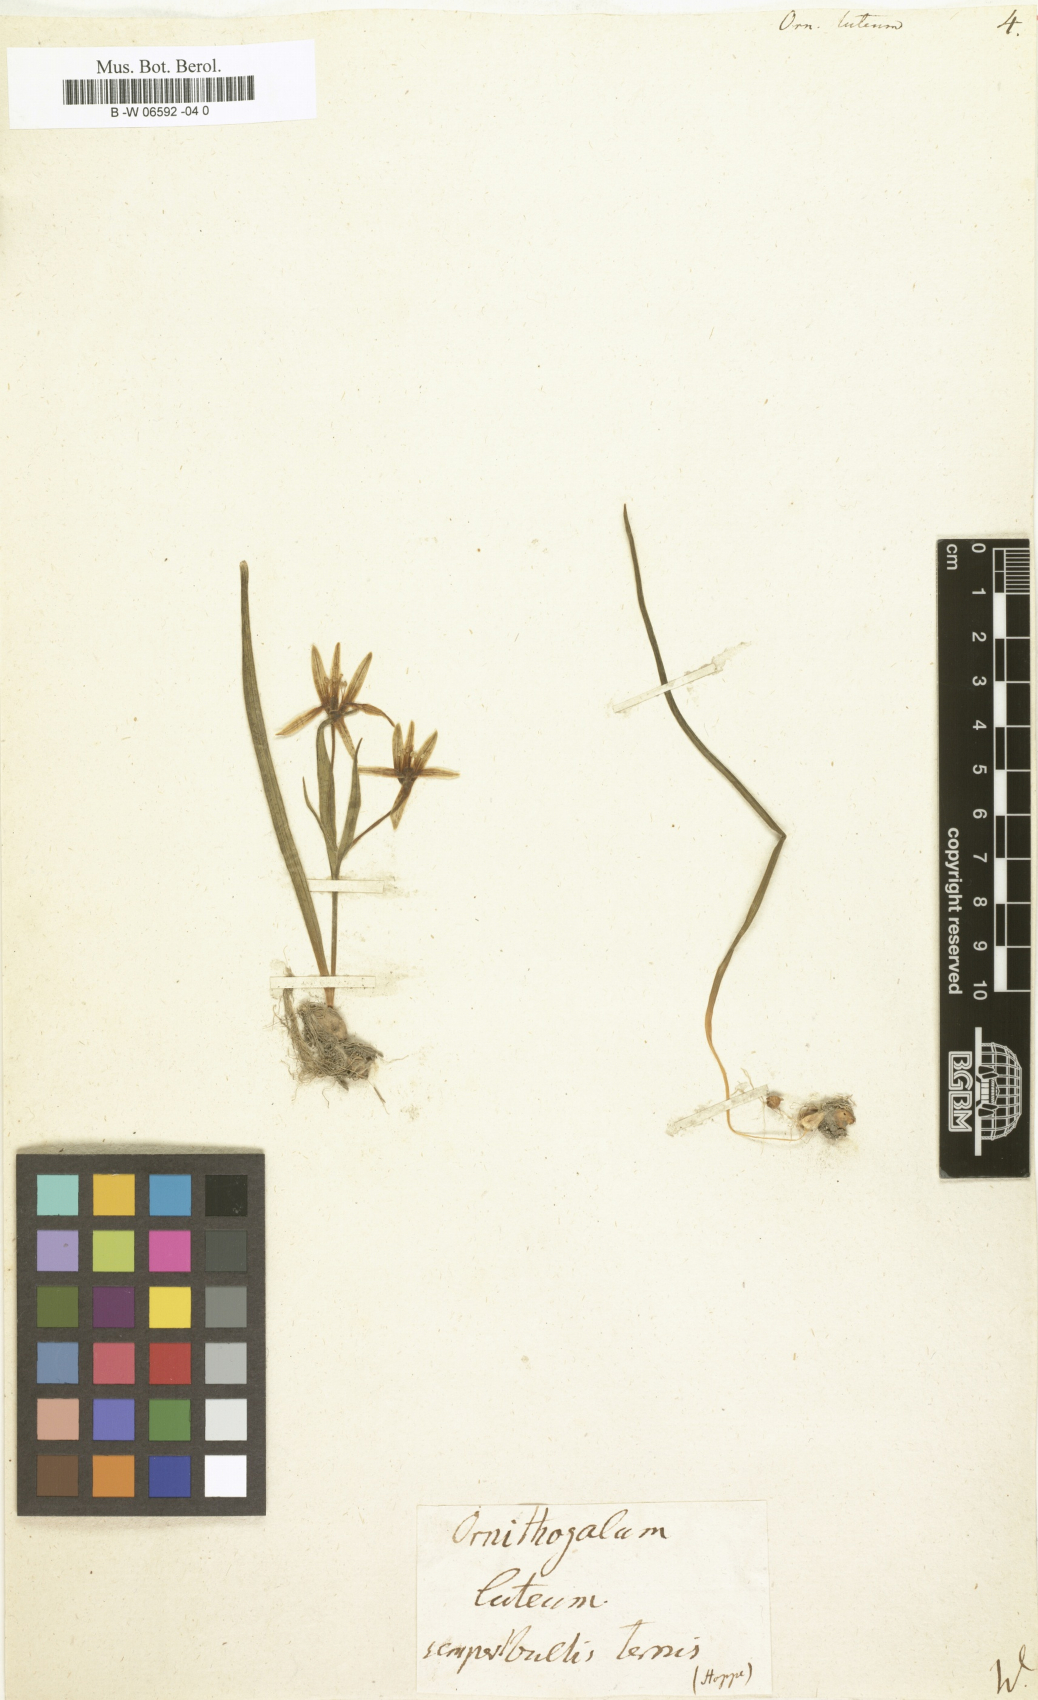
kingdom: Plantae
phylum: Tracheophyta
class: Liliopsida
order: Liliales
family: Liliaceae
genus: Gagea
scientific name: Gagea lutea
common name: Yellow star-of-bethlehem
